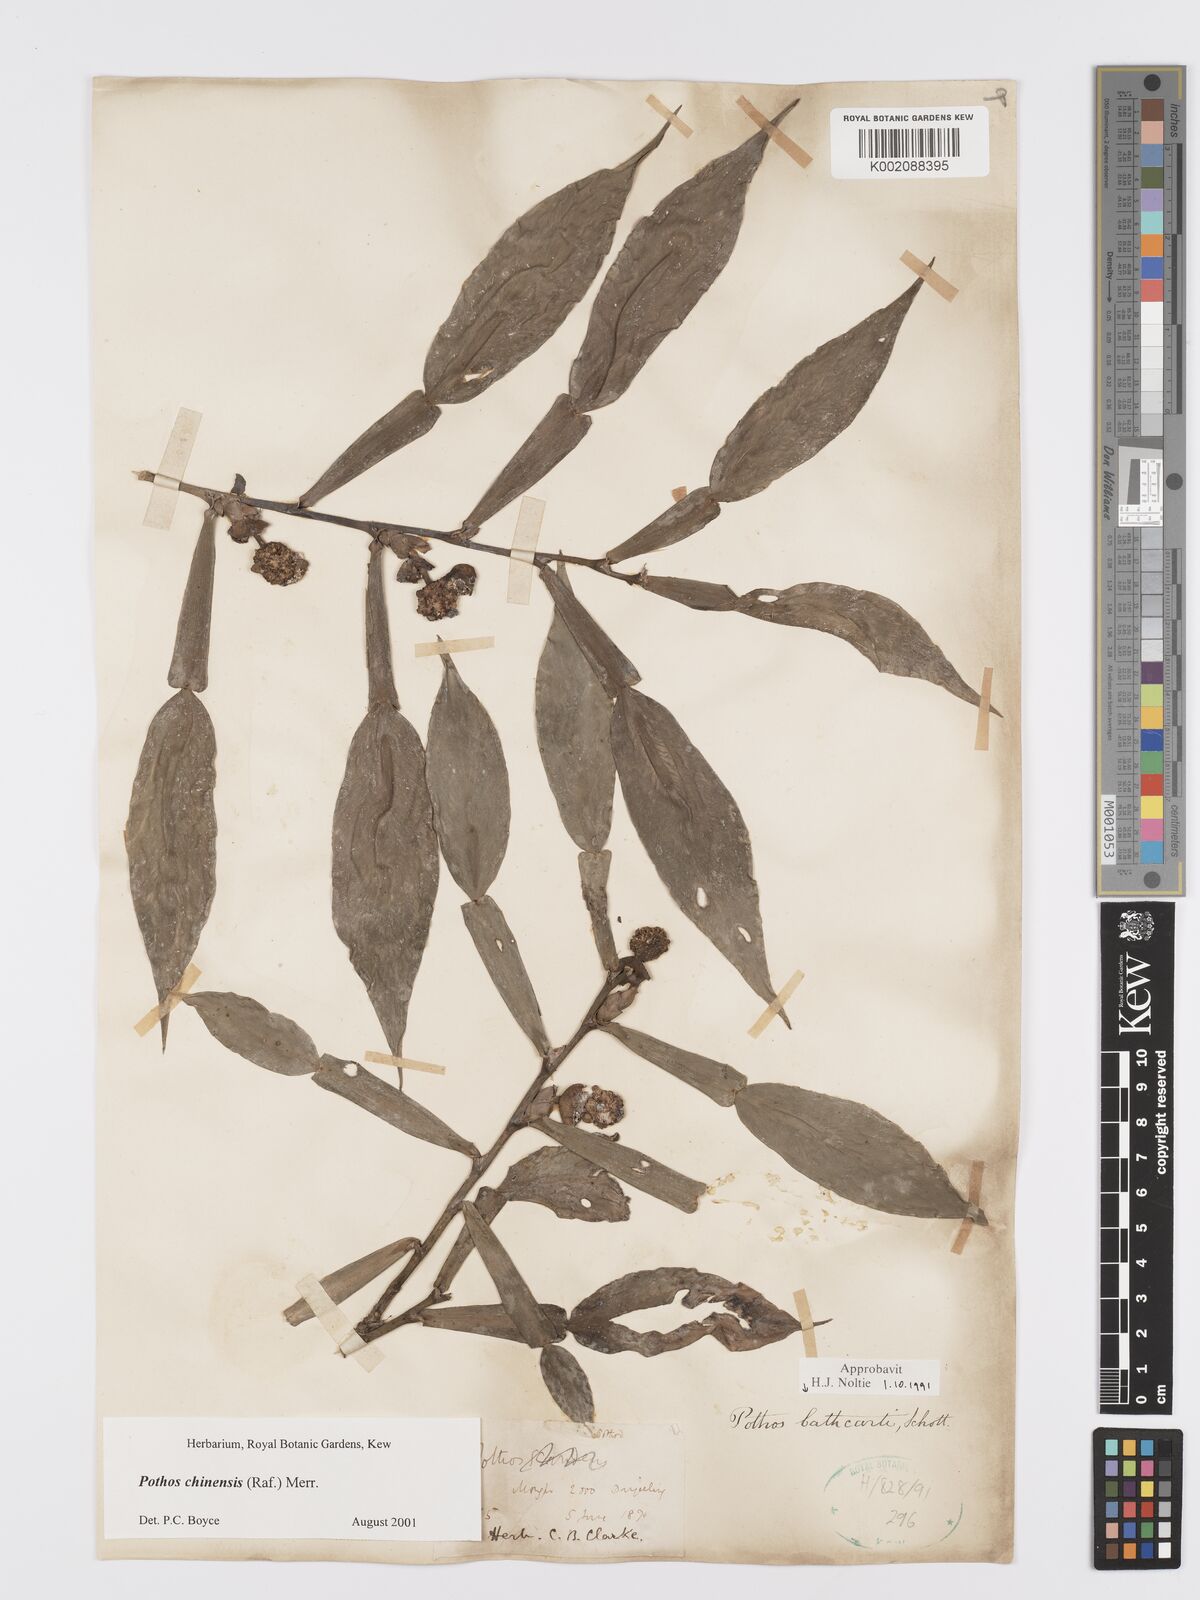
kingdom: Plantae
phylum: Tracheophyta
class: Liliopsida
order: Alismatales
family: Araceae
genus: Pothos
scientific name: Pothos chinensis
